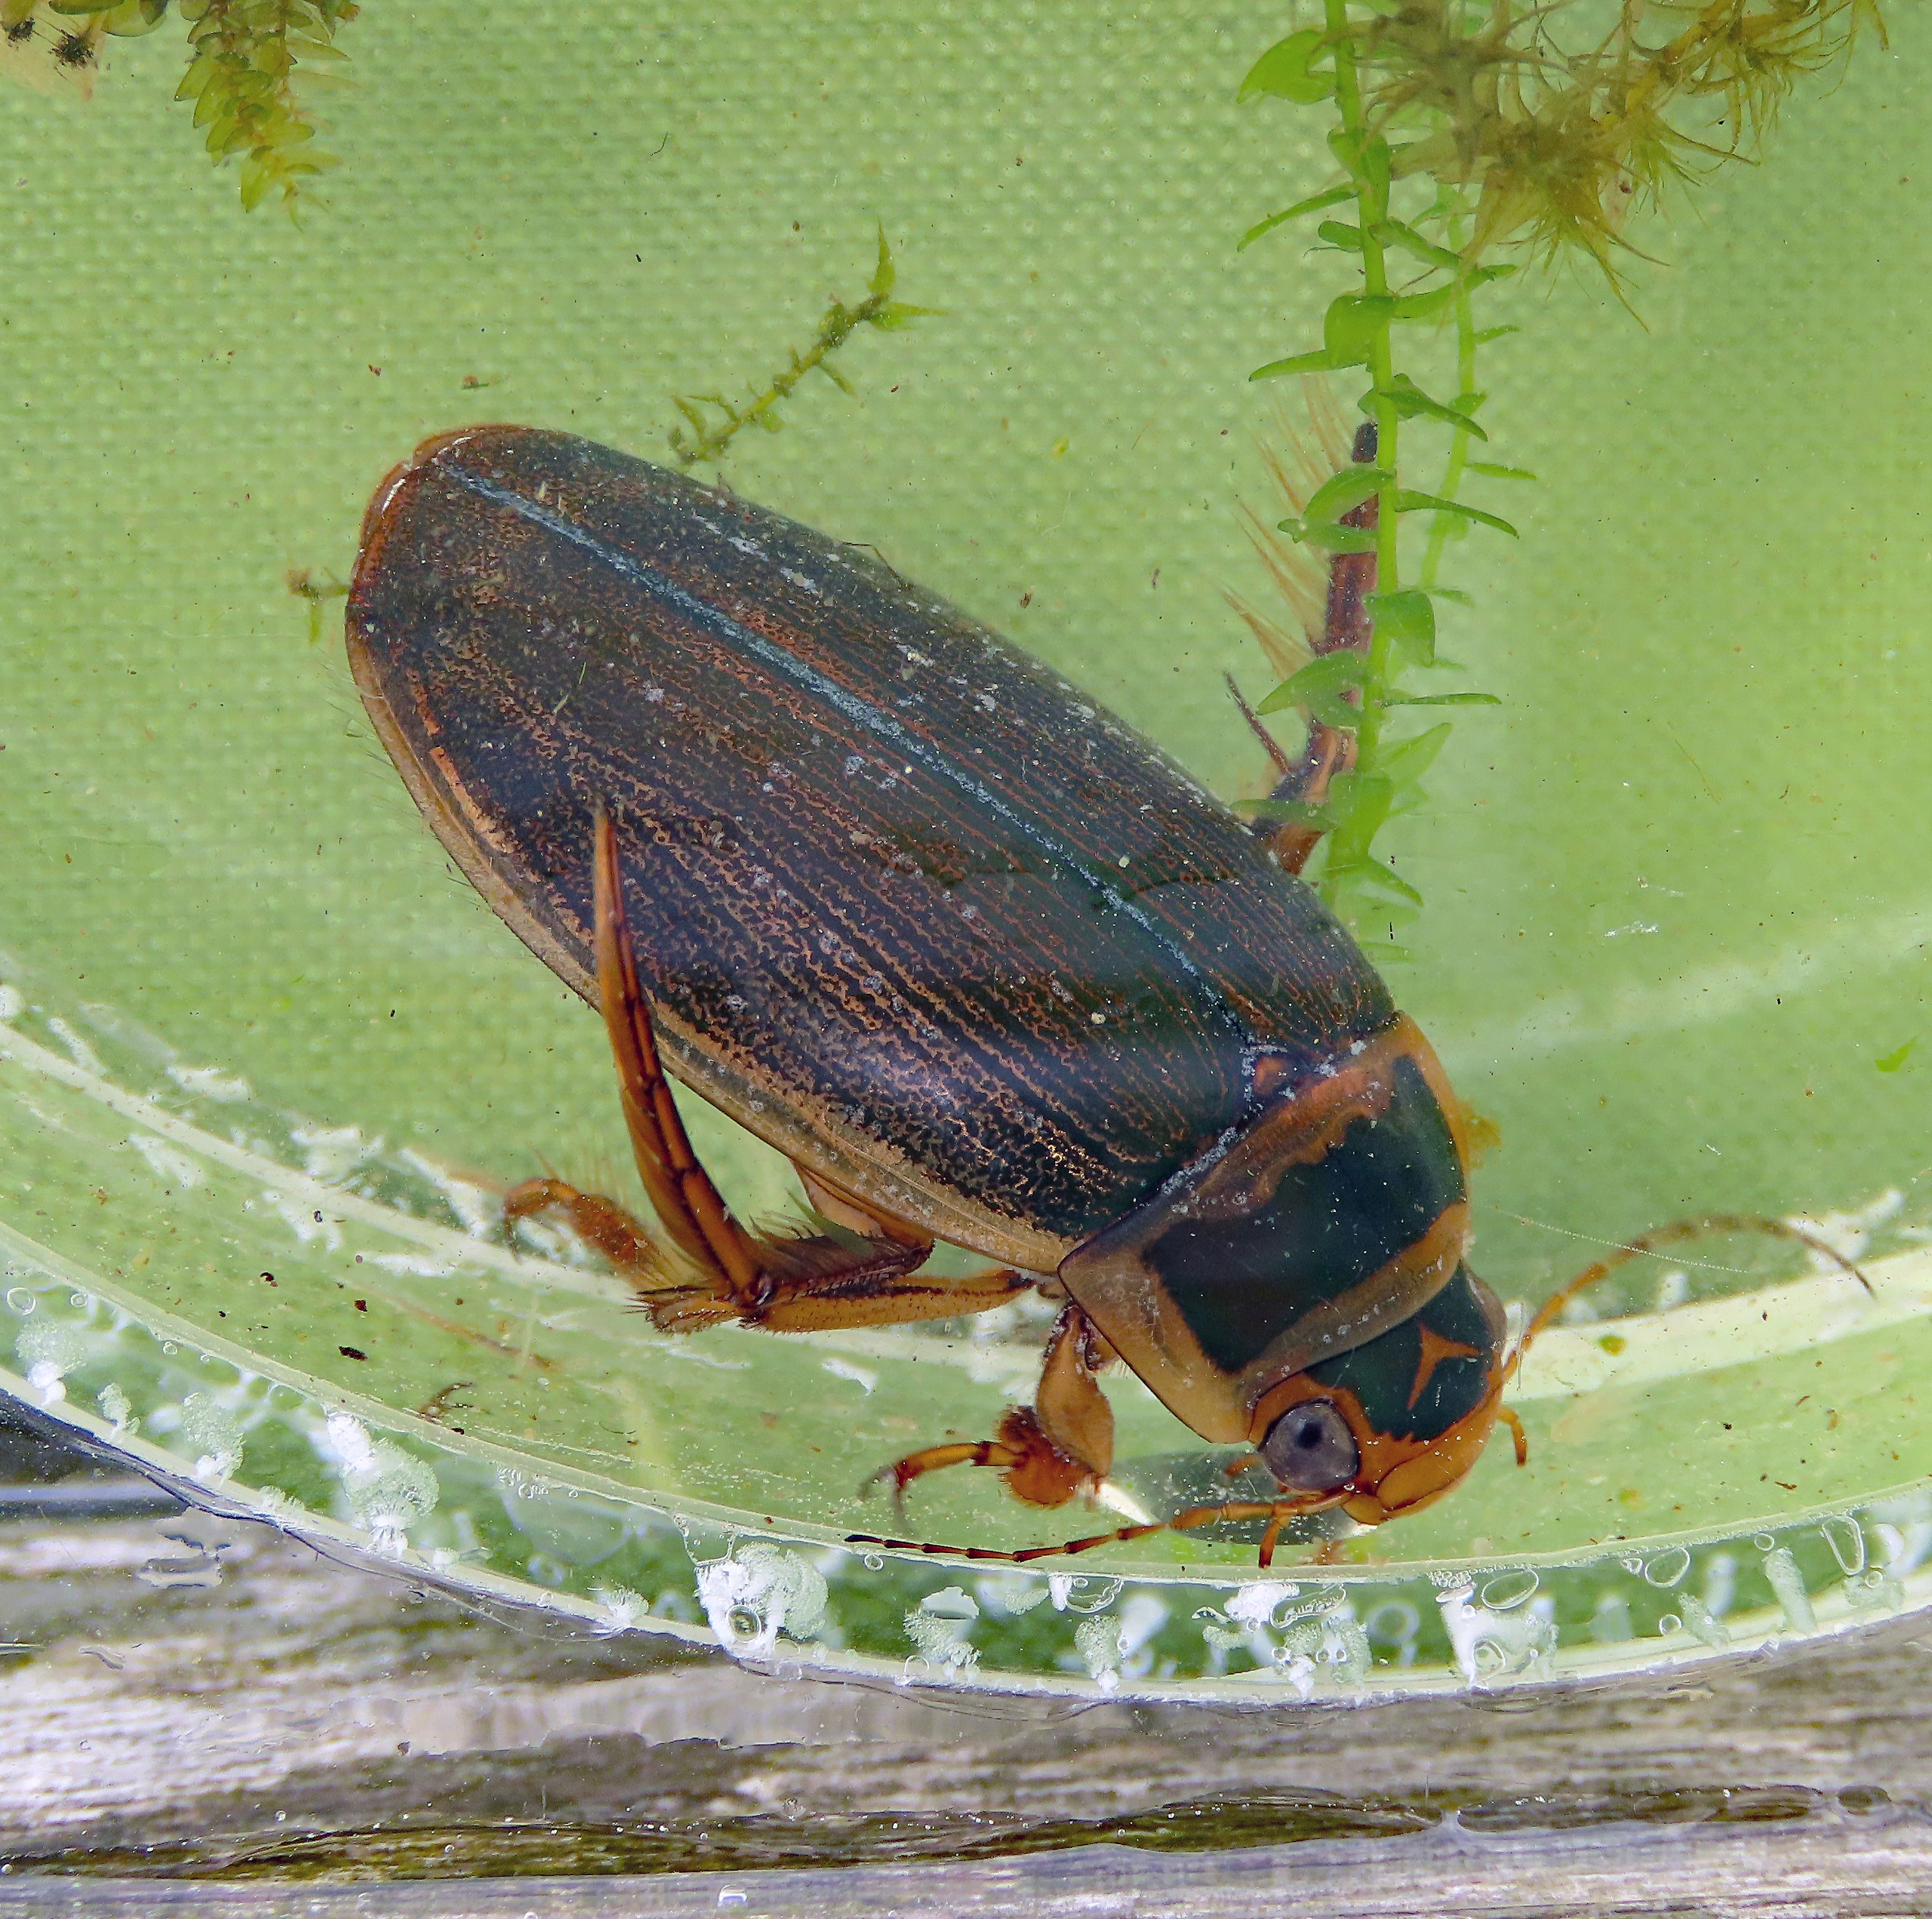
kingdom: Animalia
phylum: Arthropoda
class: Insecta
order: Coleoptera
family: Dytiscidae
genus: Dytiscus
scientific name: Dytiscus lapponicus
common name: Hedevandkalv
